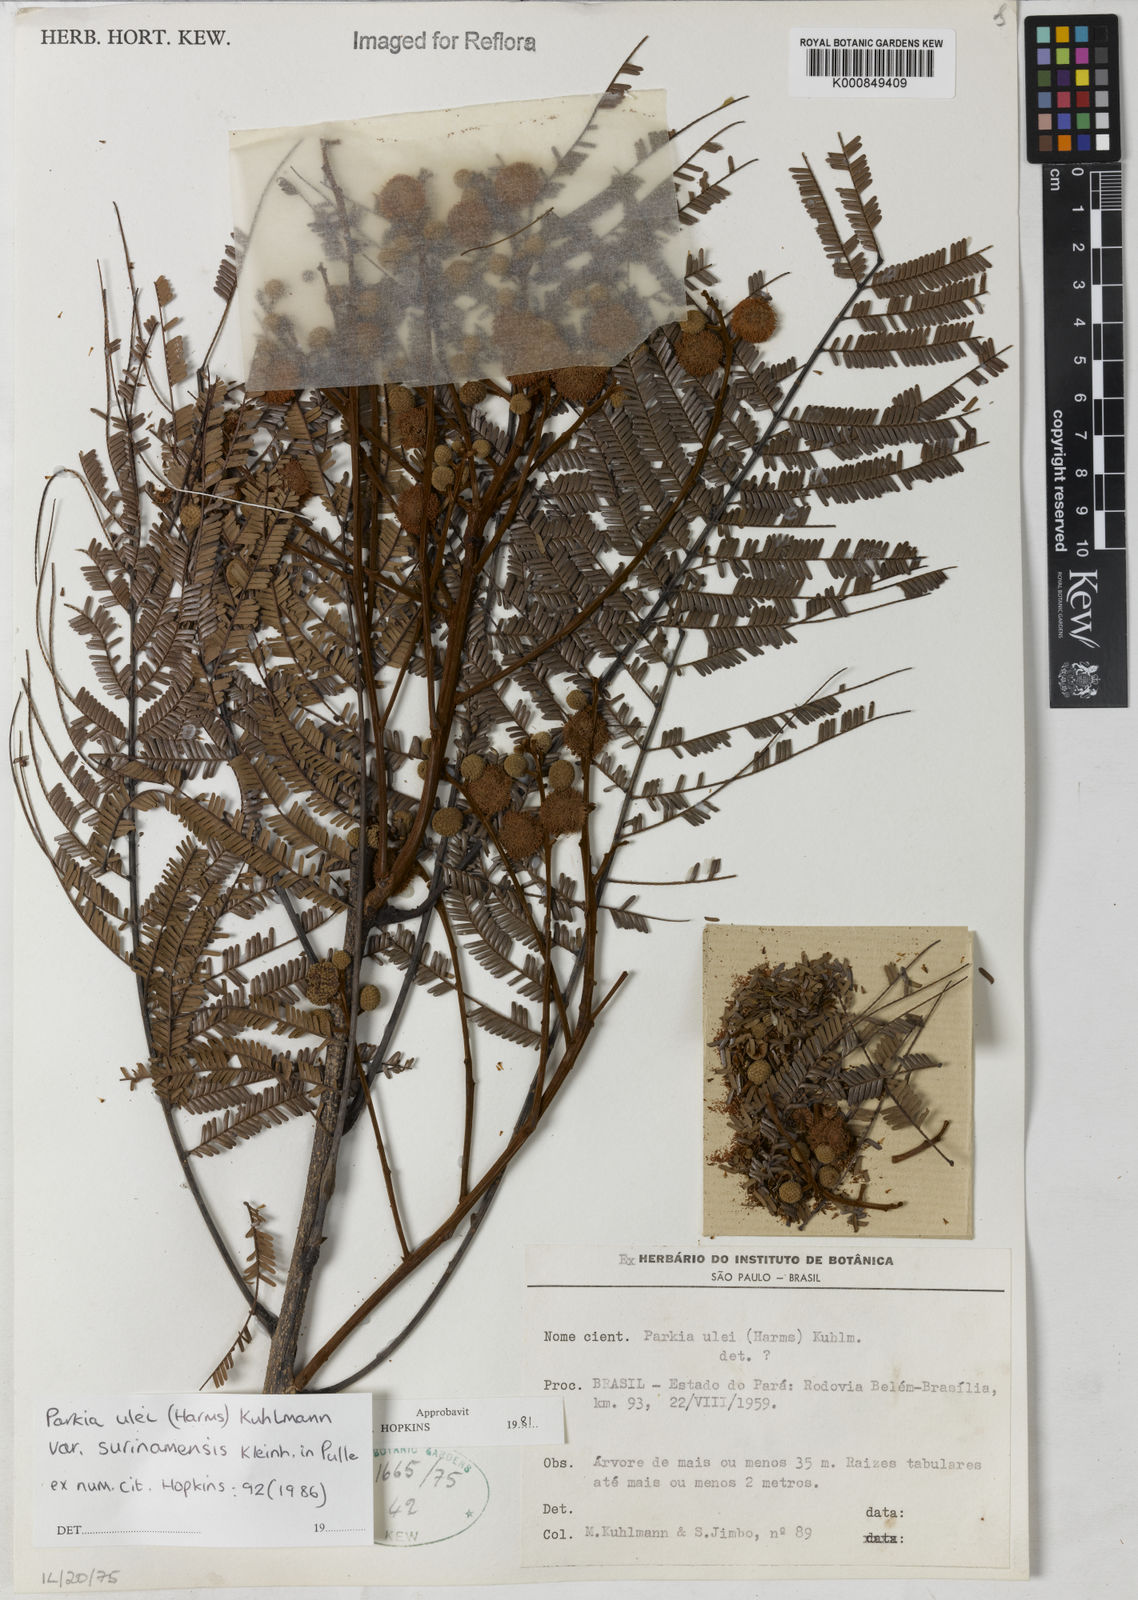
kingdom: Plantae
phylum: Tracheophyta
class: Magnoliopsida
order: Fabales
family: Fabaceae
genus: Parkia
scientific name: Parkia ulei
